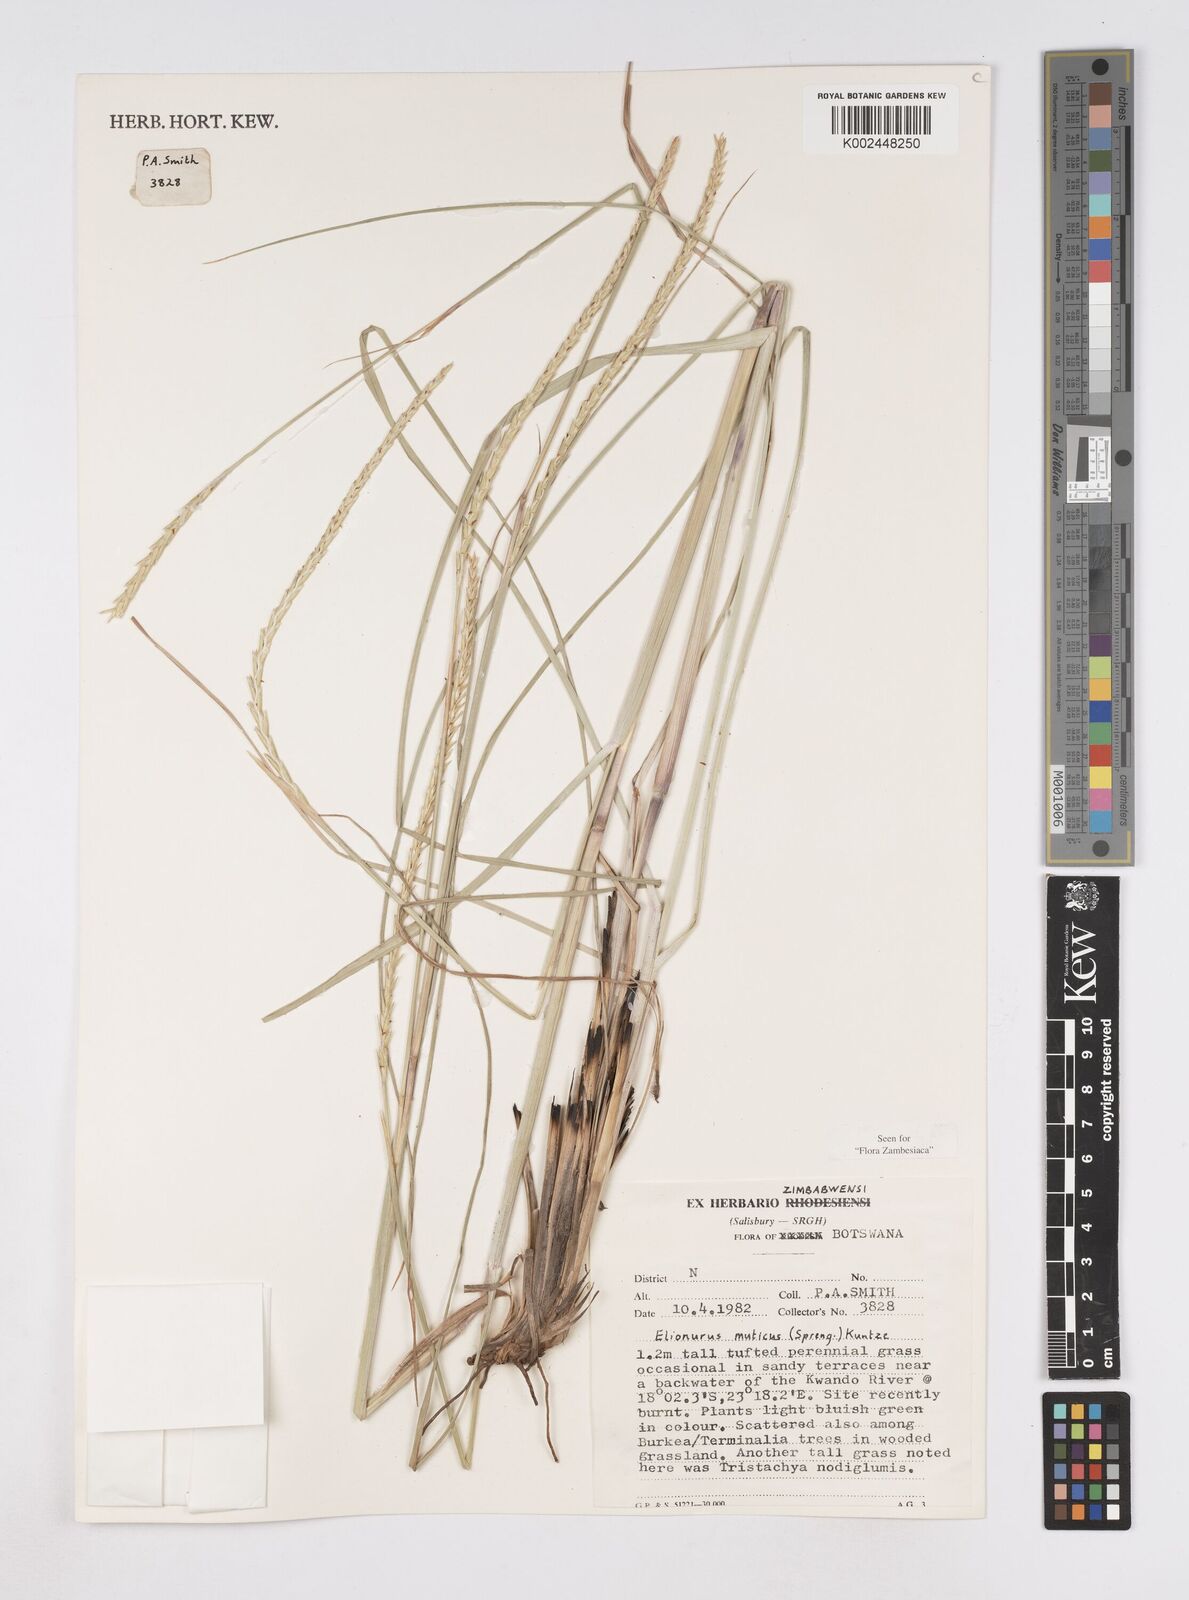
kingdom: Plantae
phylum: Tracheophyta
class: Liliopsida
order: Poales
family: Poaceae
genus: Elionurus
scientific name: Elionurus muticus
